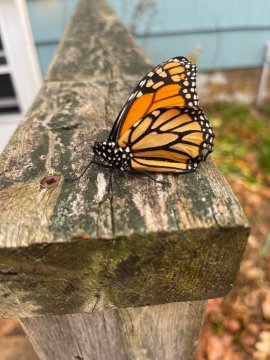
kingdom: Animalia
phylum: Arthropoda
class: Insecta
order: Lepidoptera
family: Nymphalidae
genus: Danaus
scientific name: Danaus plexippus
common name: Monarch
